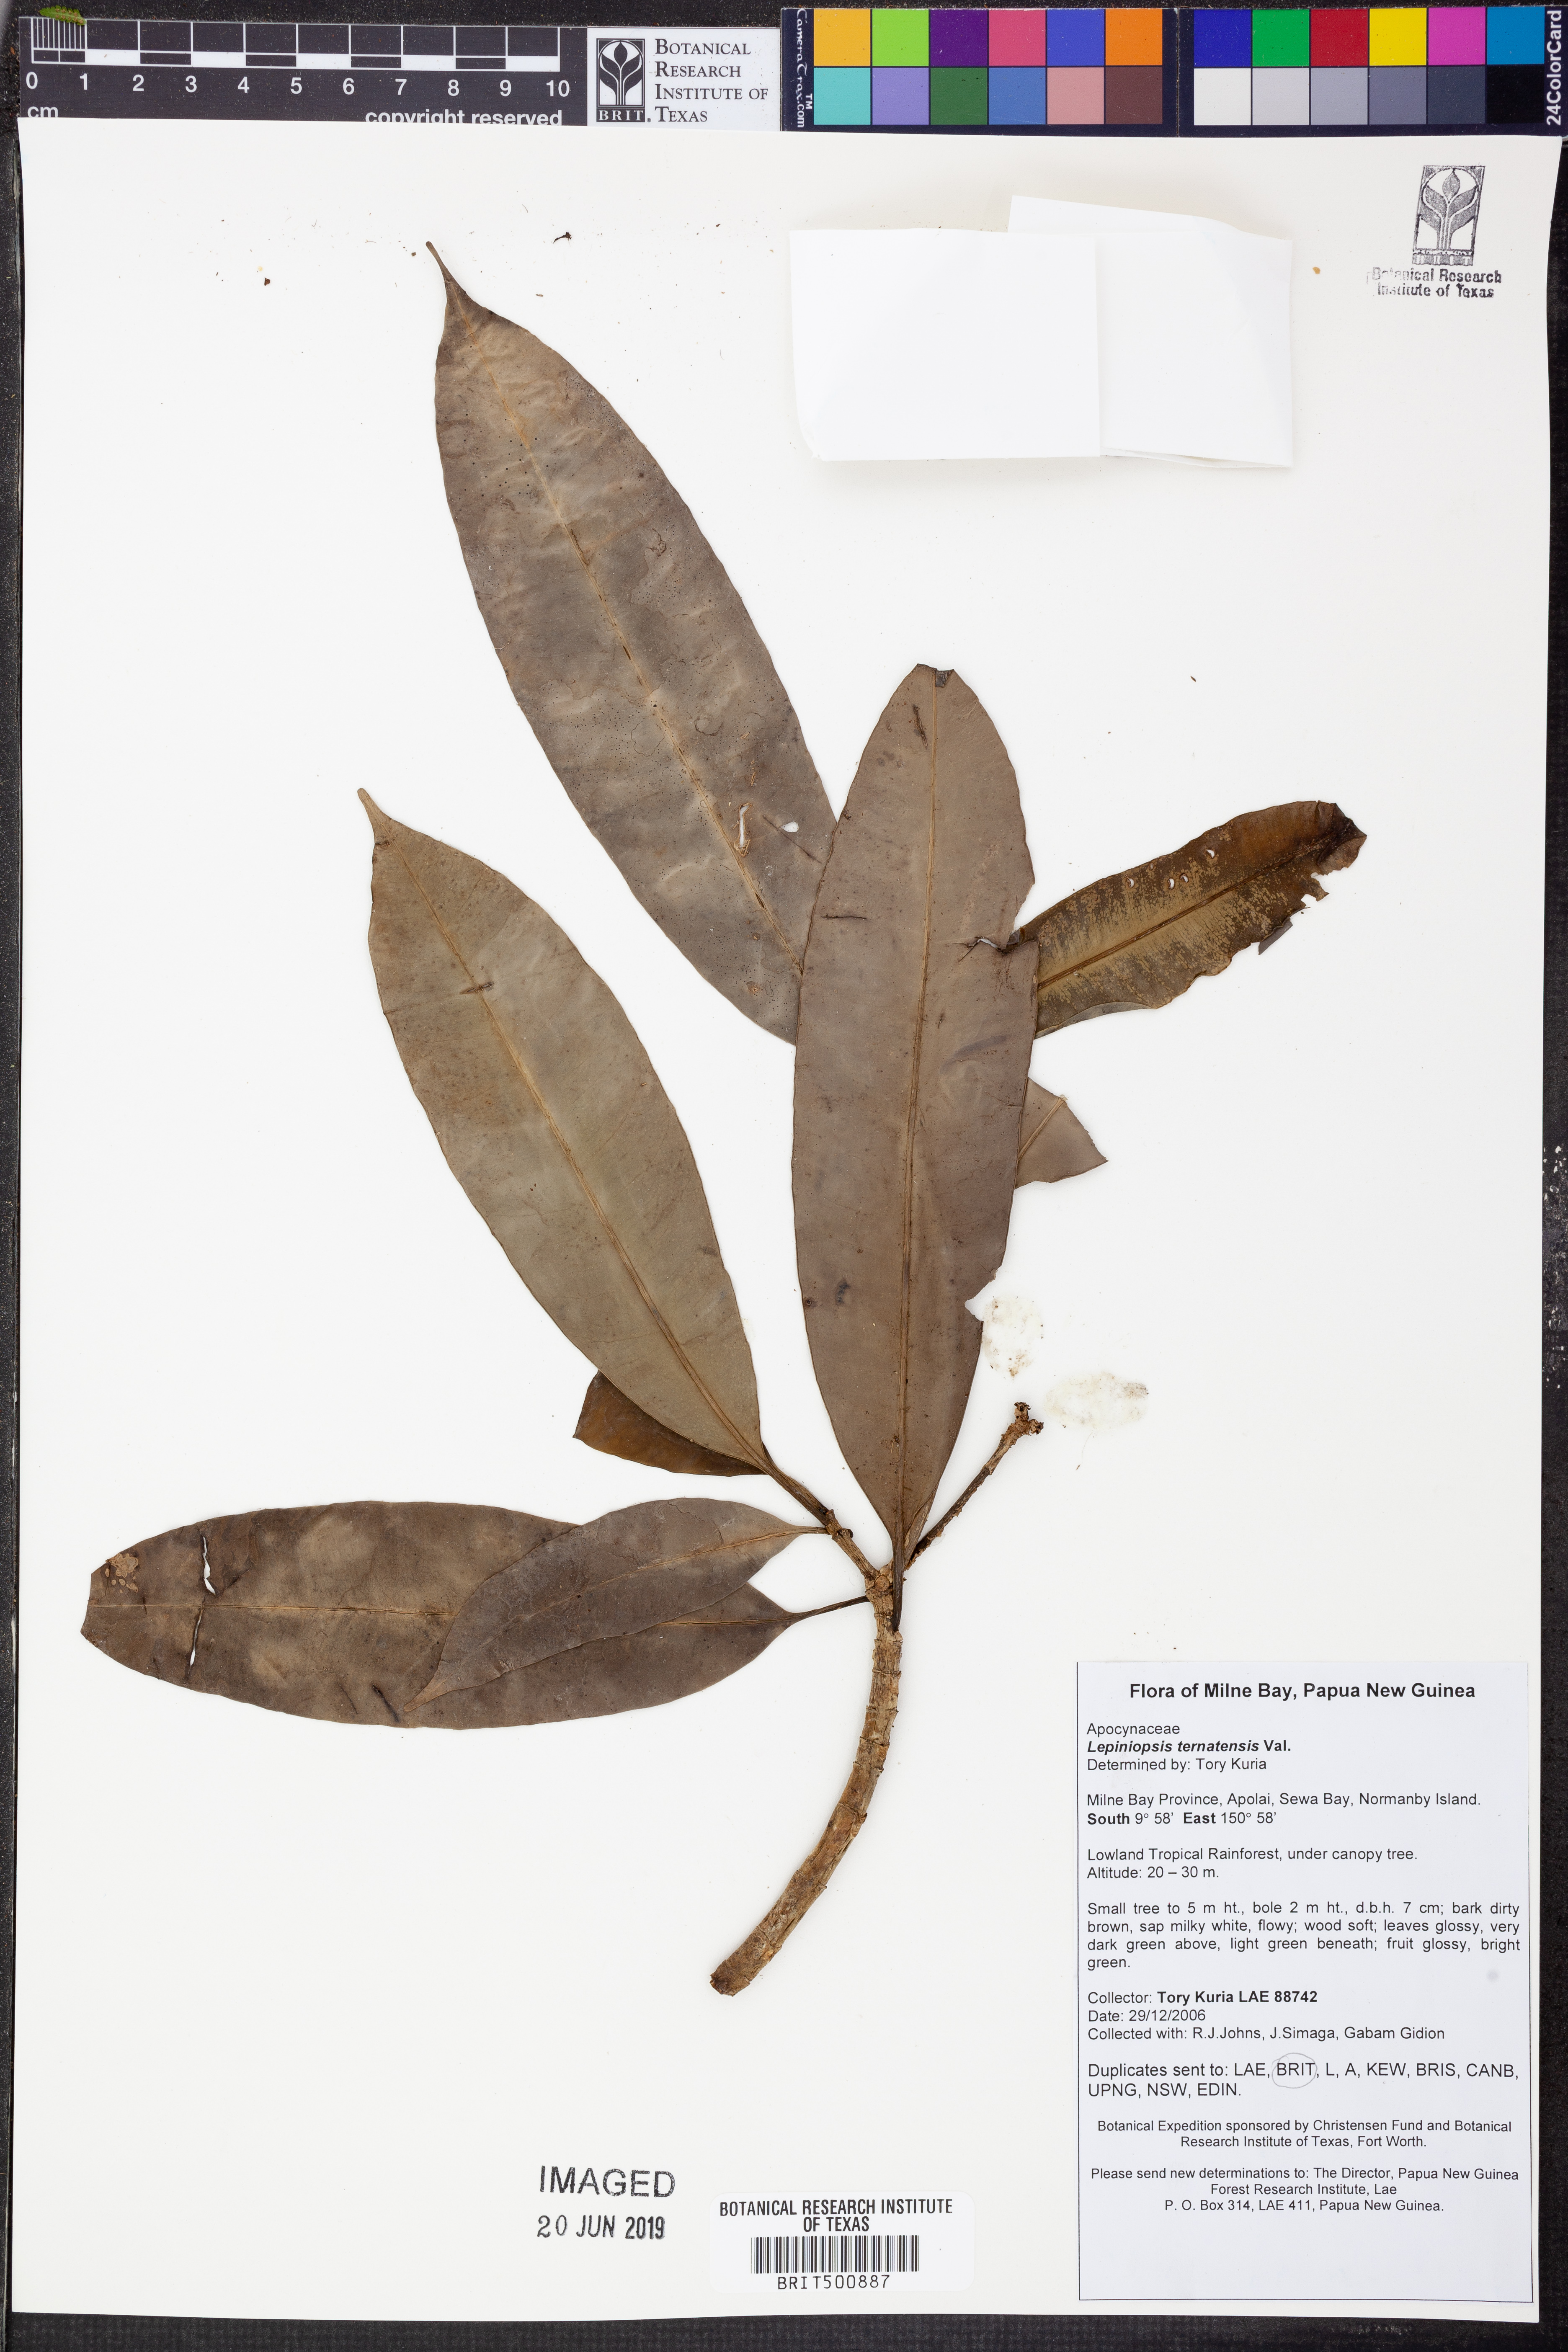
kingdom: Plantae
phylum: Tracheophyta
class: Magnoliopsida
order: Gentianales
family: Apocynaceae
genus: Lepiniopsis
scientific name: Lepiniopsis ternatensis
